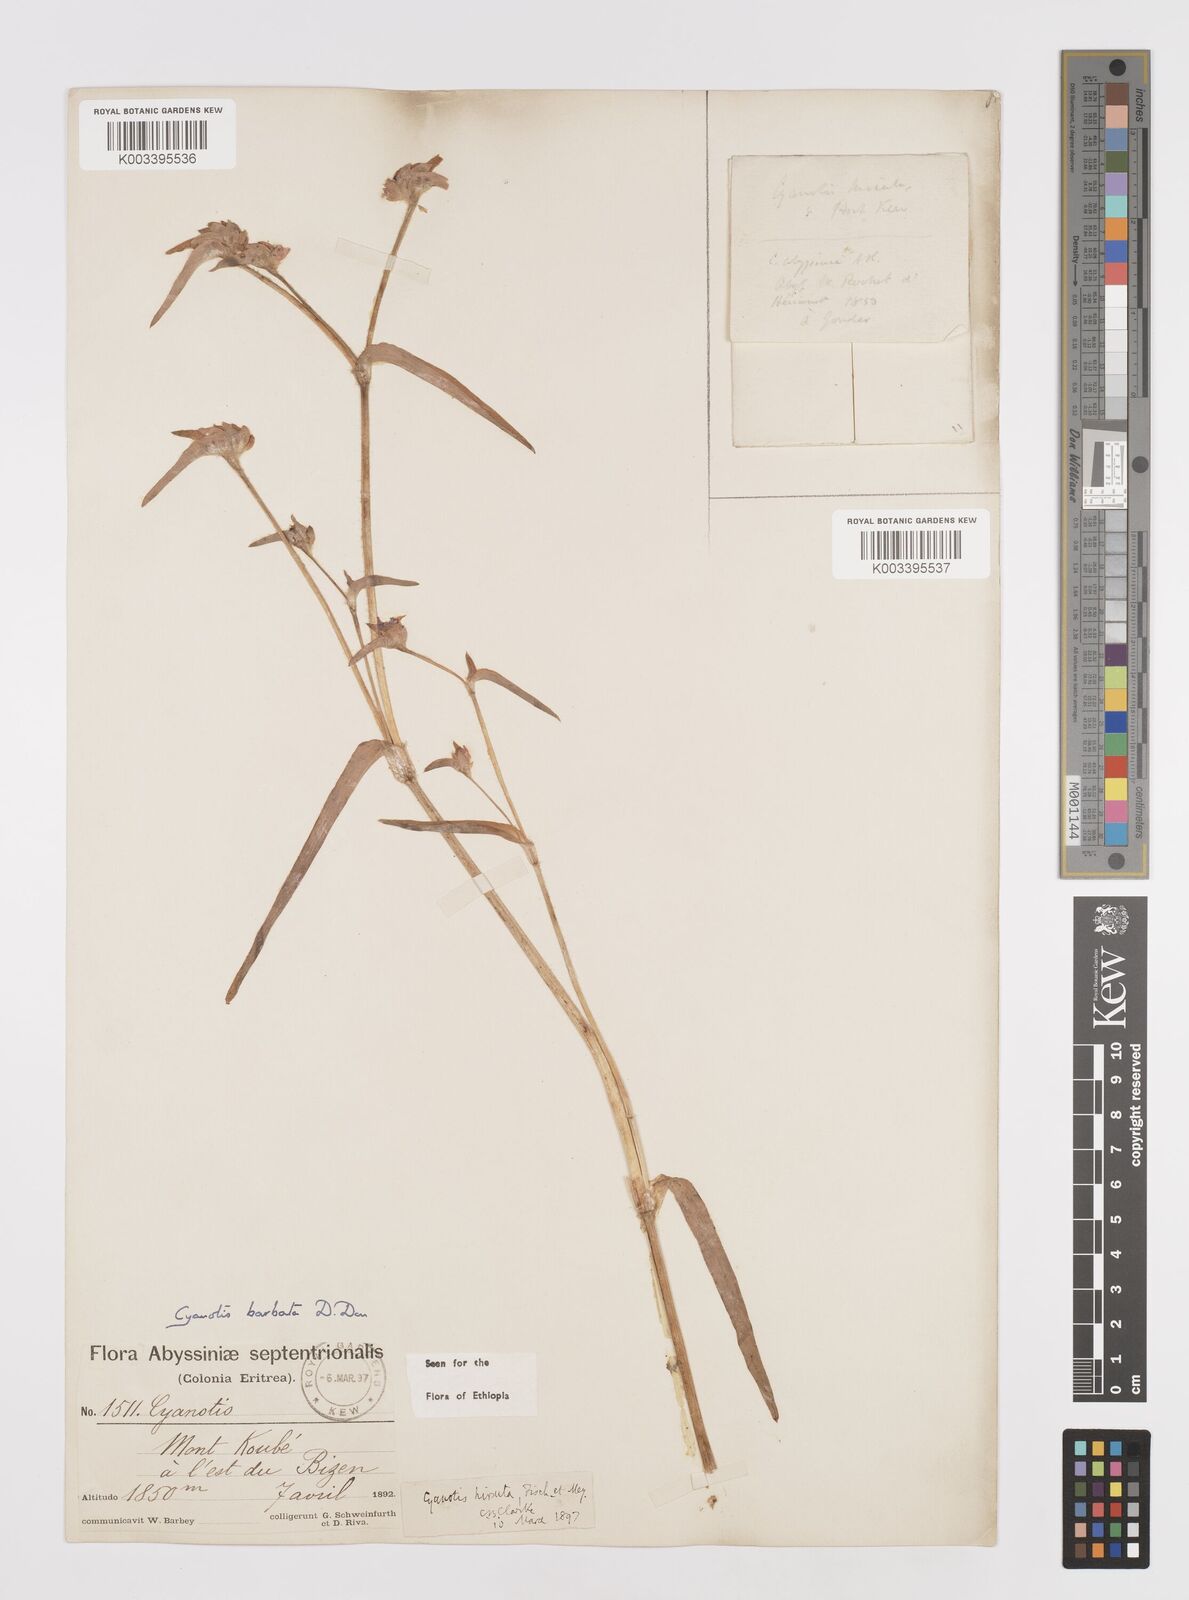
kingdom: Plantae
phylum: Tracheophyta
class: Liliopsida
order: Commelinales
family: Commelinaceae
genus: Cyanotis
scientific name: Cyanotis vaga
